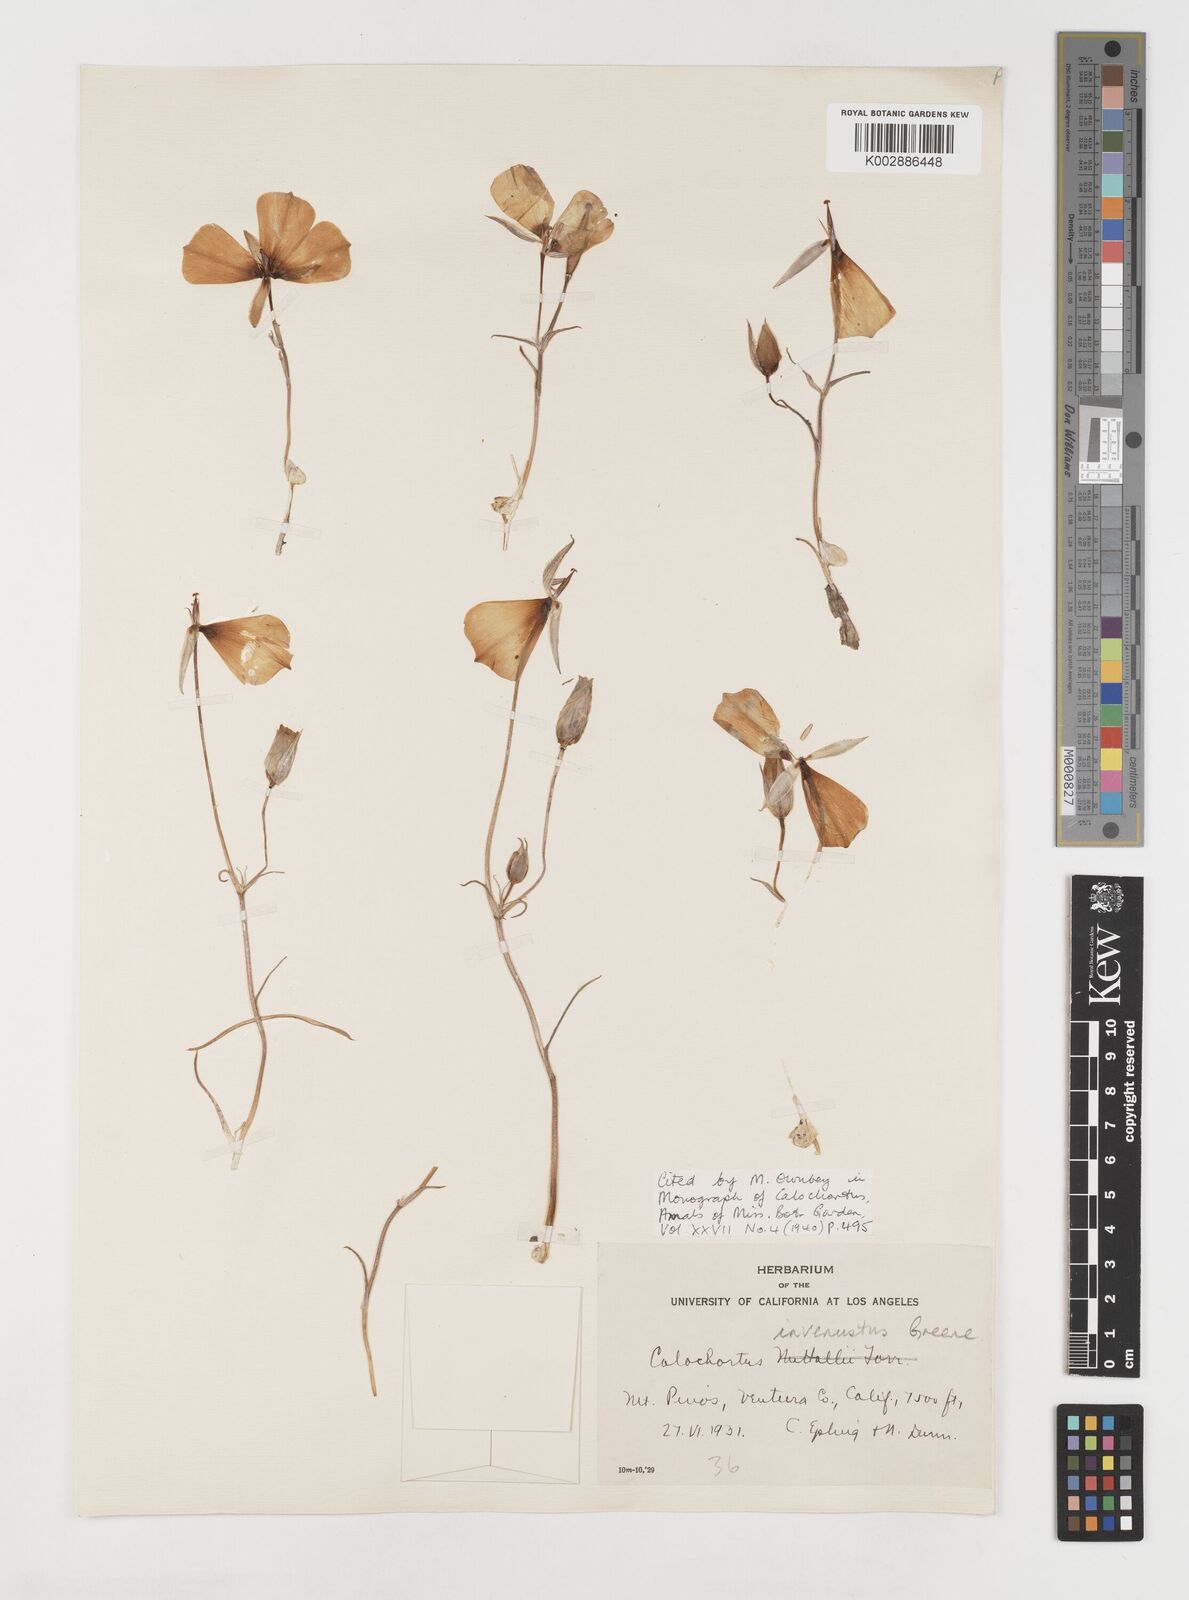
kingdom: Plantae
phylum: Tracheophyta
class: Liliopsida
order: Liliales
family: Liliaceae
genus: Calochortus
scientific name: Calochortus invenustus
